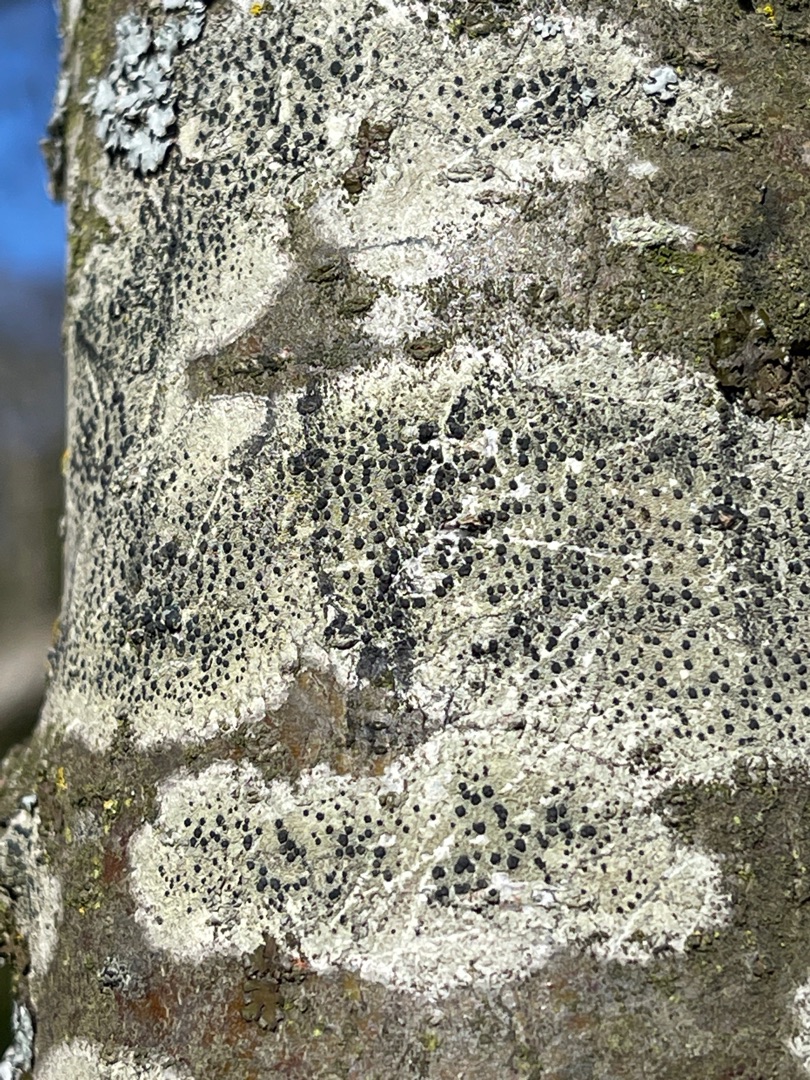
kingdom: Fungi
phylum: Ascomycota
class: Lecanoromycetes
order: Lecanorales
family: Lecanoraceae
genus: Lecidella
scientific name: Lecidella elaeochroma
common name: Grågrøn skivelav
